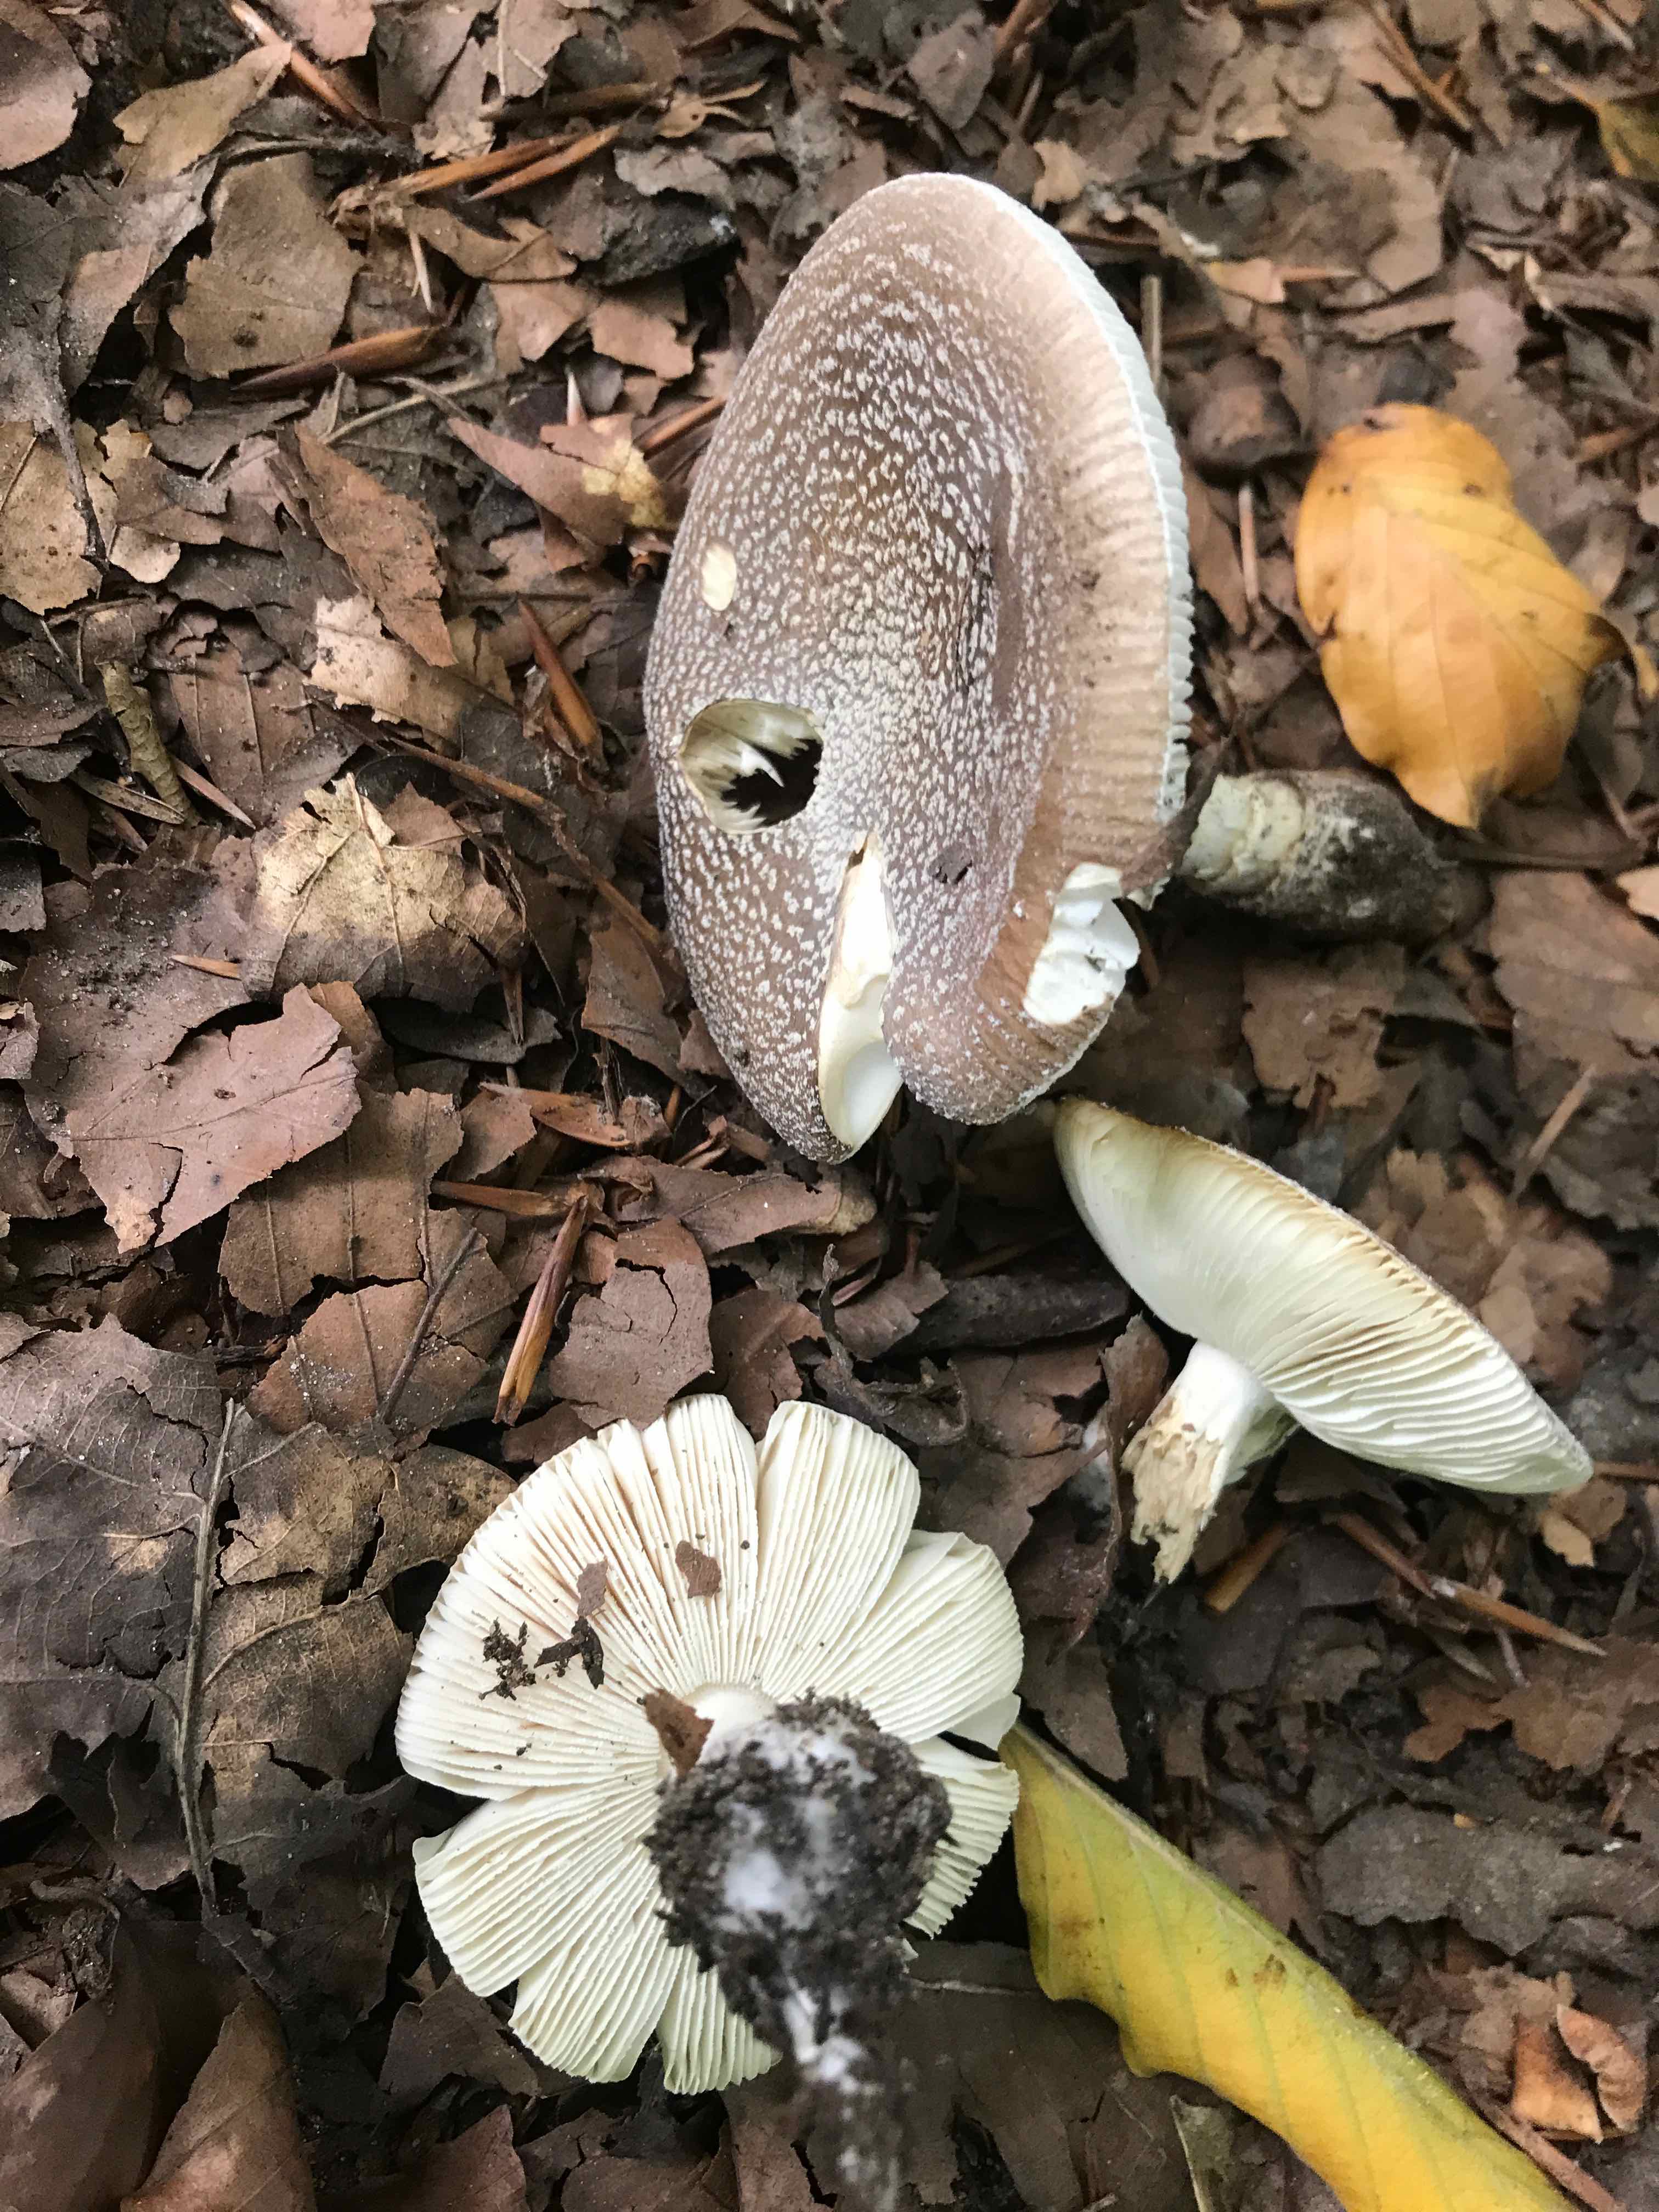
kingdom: Fungi
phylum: Basidiomycota
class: Agaricomycetes
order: Agaricales
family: Amanitaceae
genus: Amanita
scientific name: Amanita
